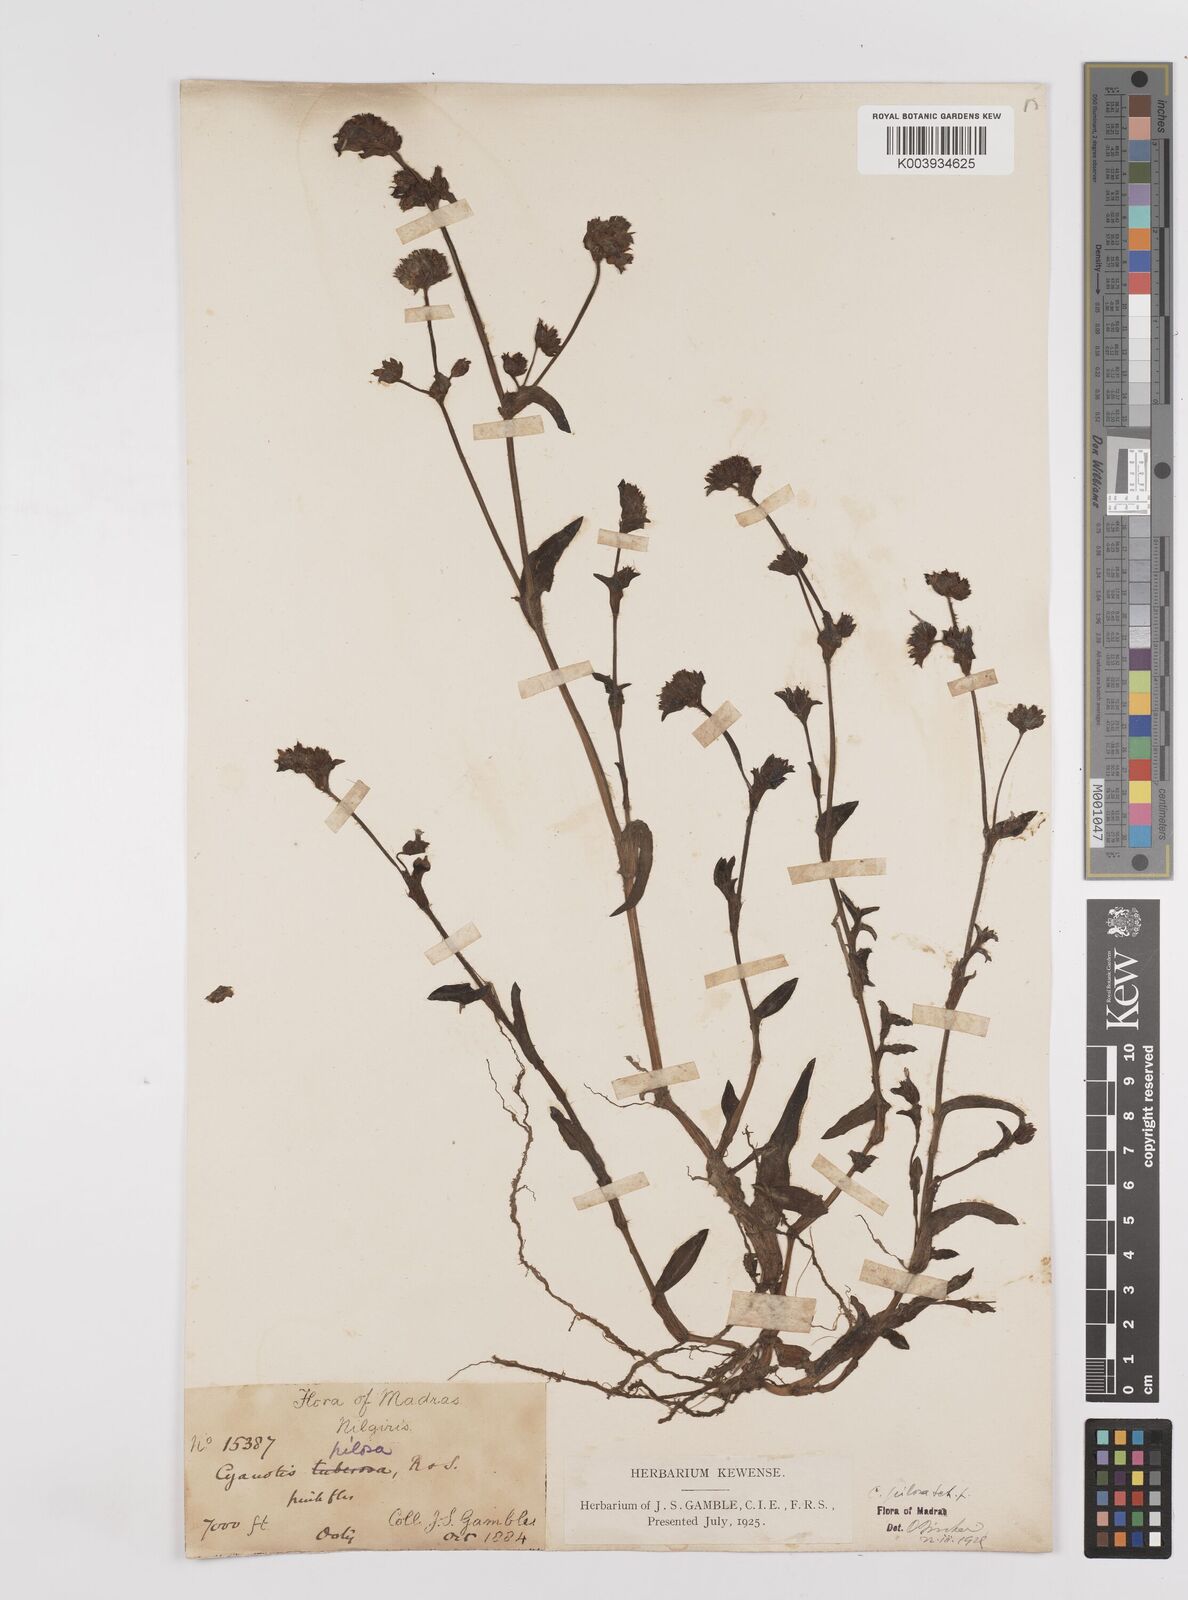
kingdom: Plantae
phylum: Tracheophyta
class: Liliopsida
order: Commelinales
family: Commelinaceae
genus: Cyanotis
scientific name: Cyanotis pilosa
